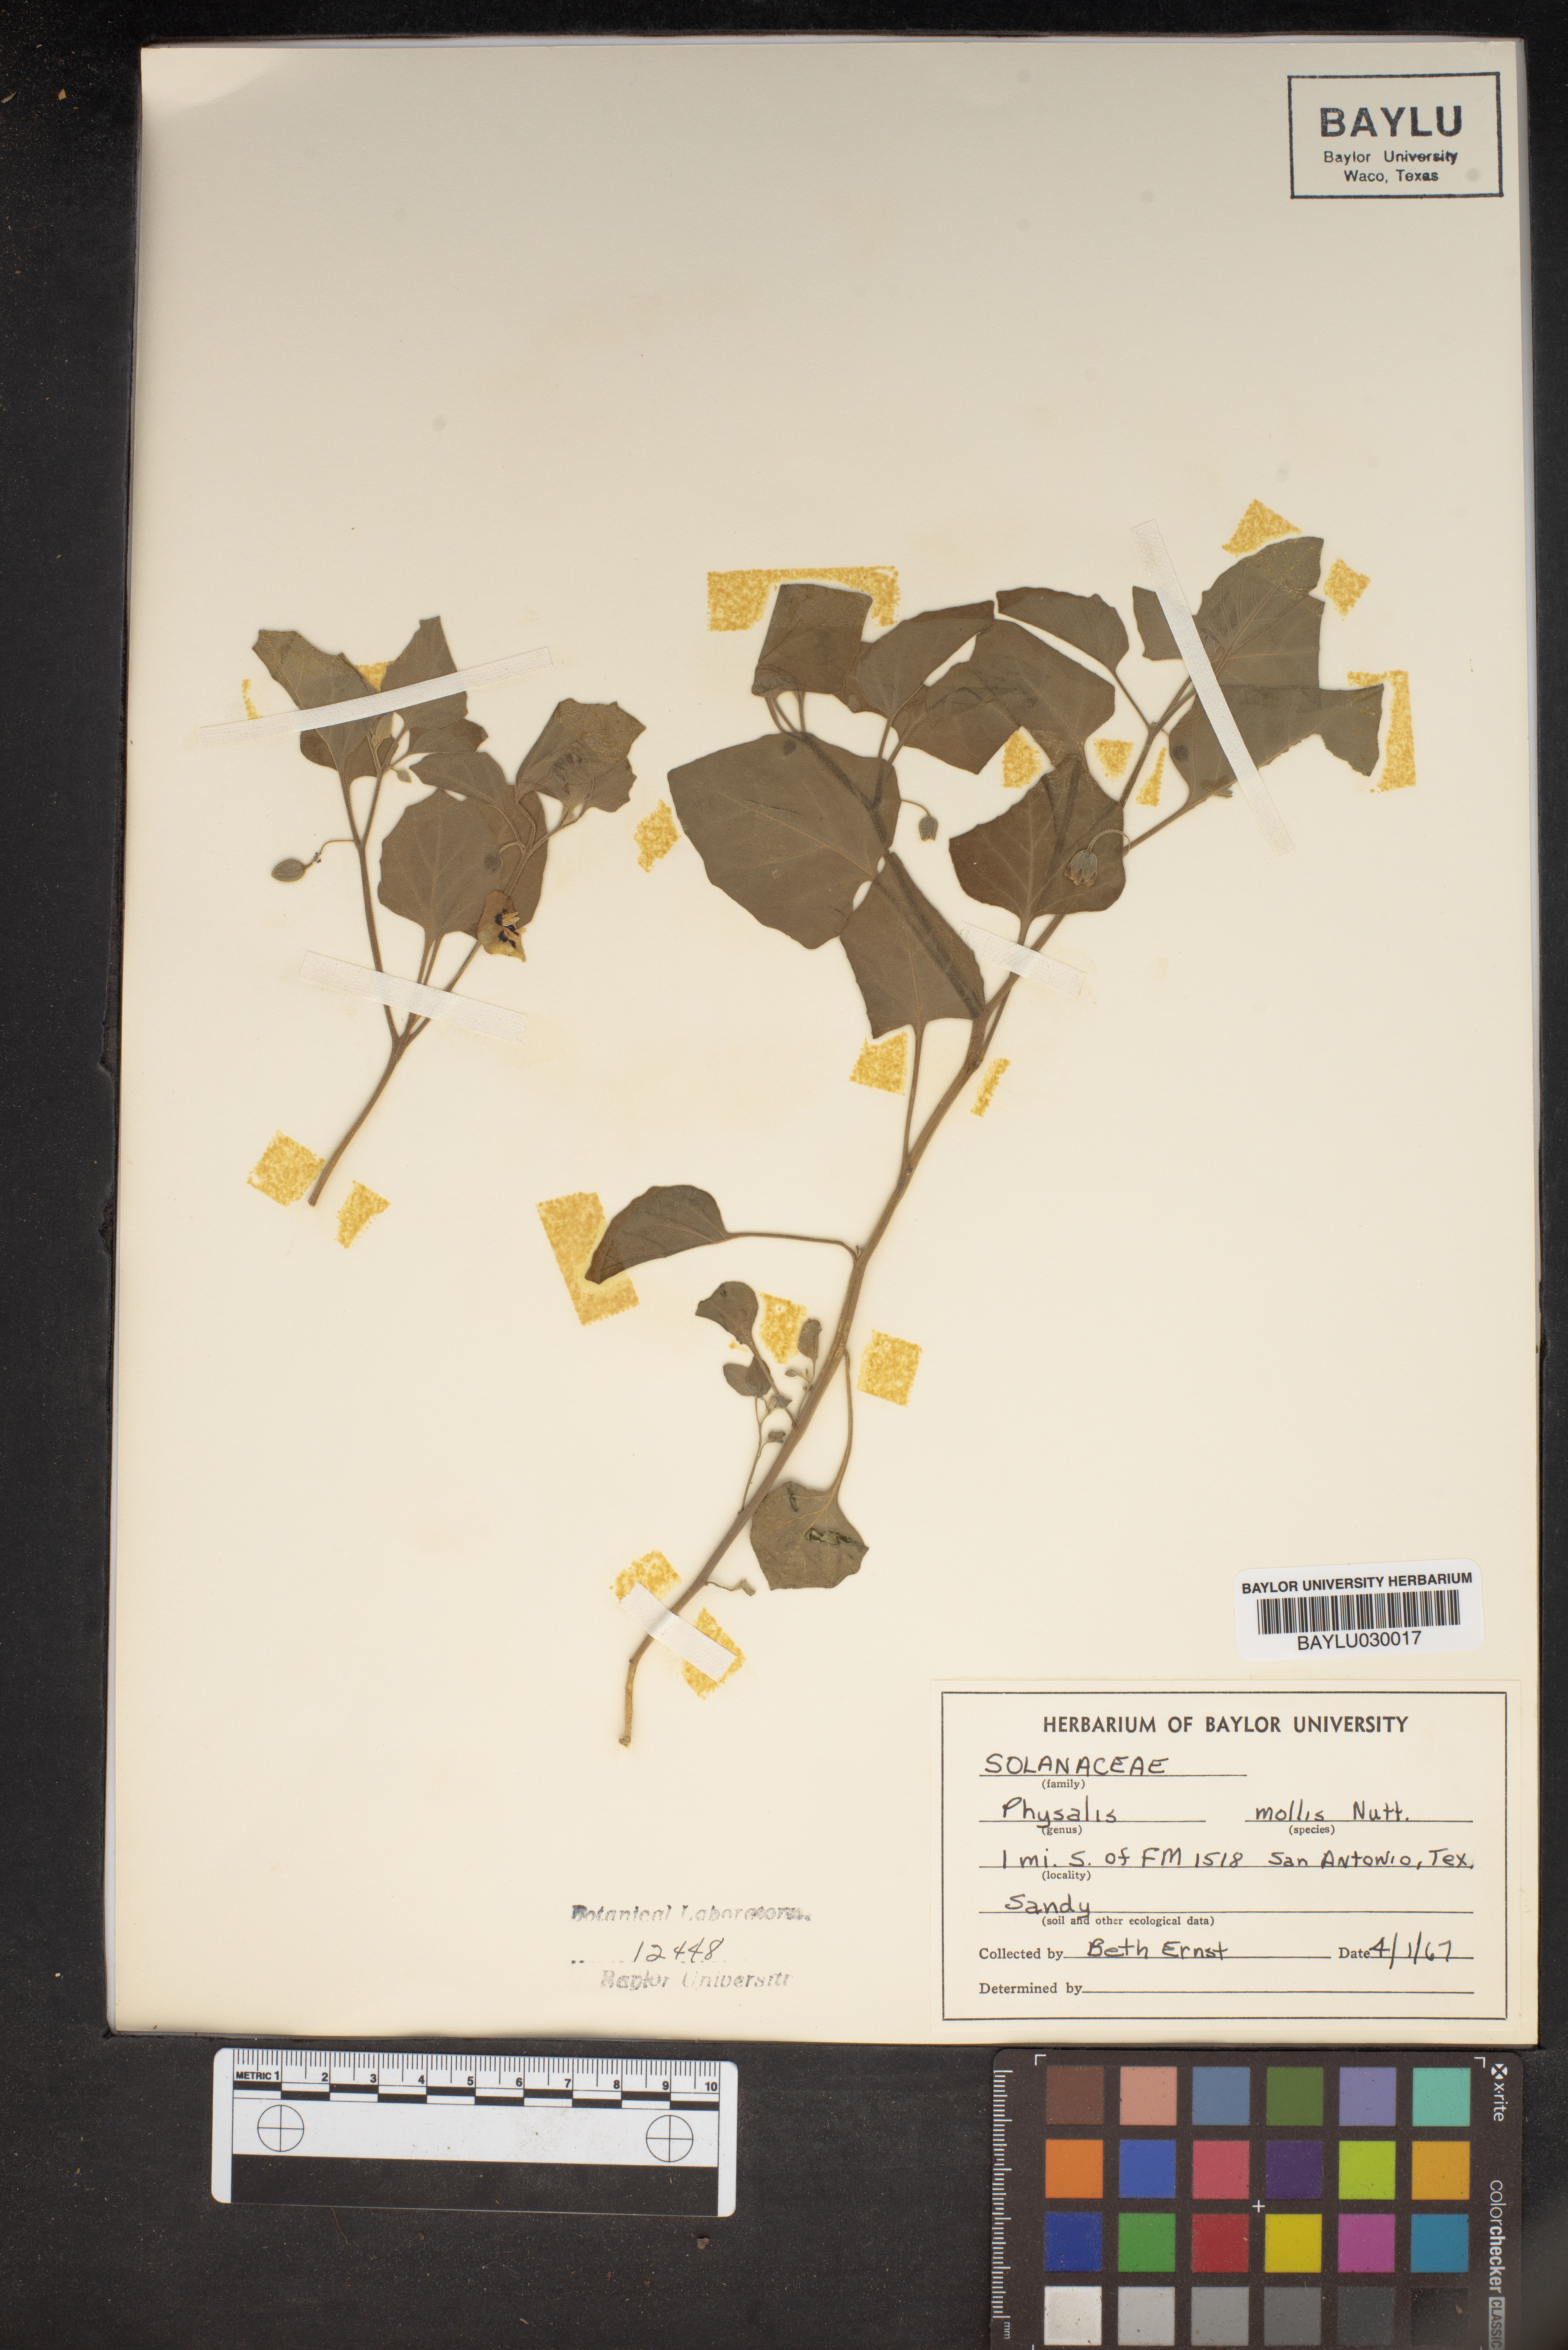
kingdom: Plantae
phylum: Tracheophyta
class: Magnoliopsida
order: Solanales
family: Solanaceae
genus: Physalis
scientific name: Physalis mollis
